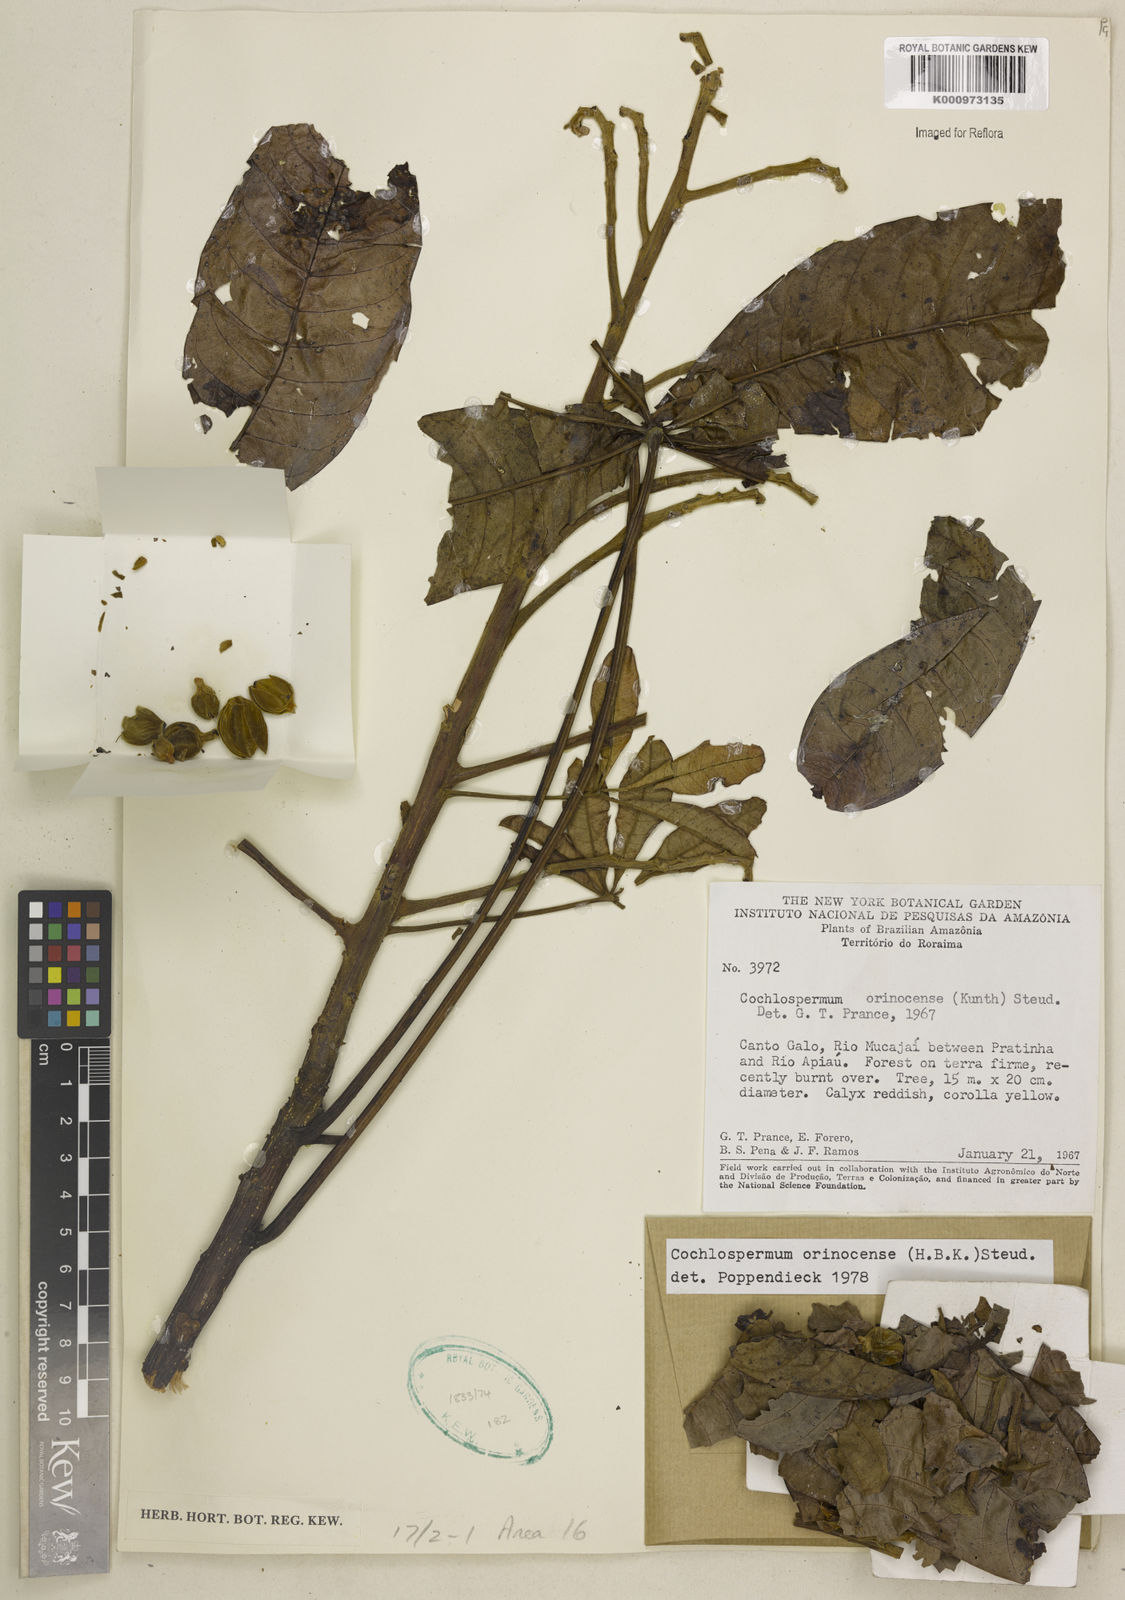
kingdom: Plantae
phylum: Tracheophyta
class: Magnoliopsida
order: Malvales
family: Cochlospermaceae
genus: Cochlospermum
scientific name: Cochlospermum orinocense
